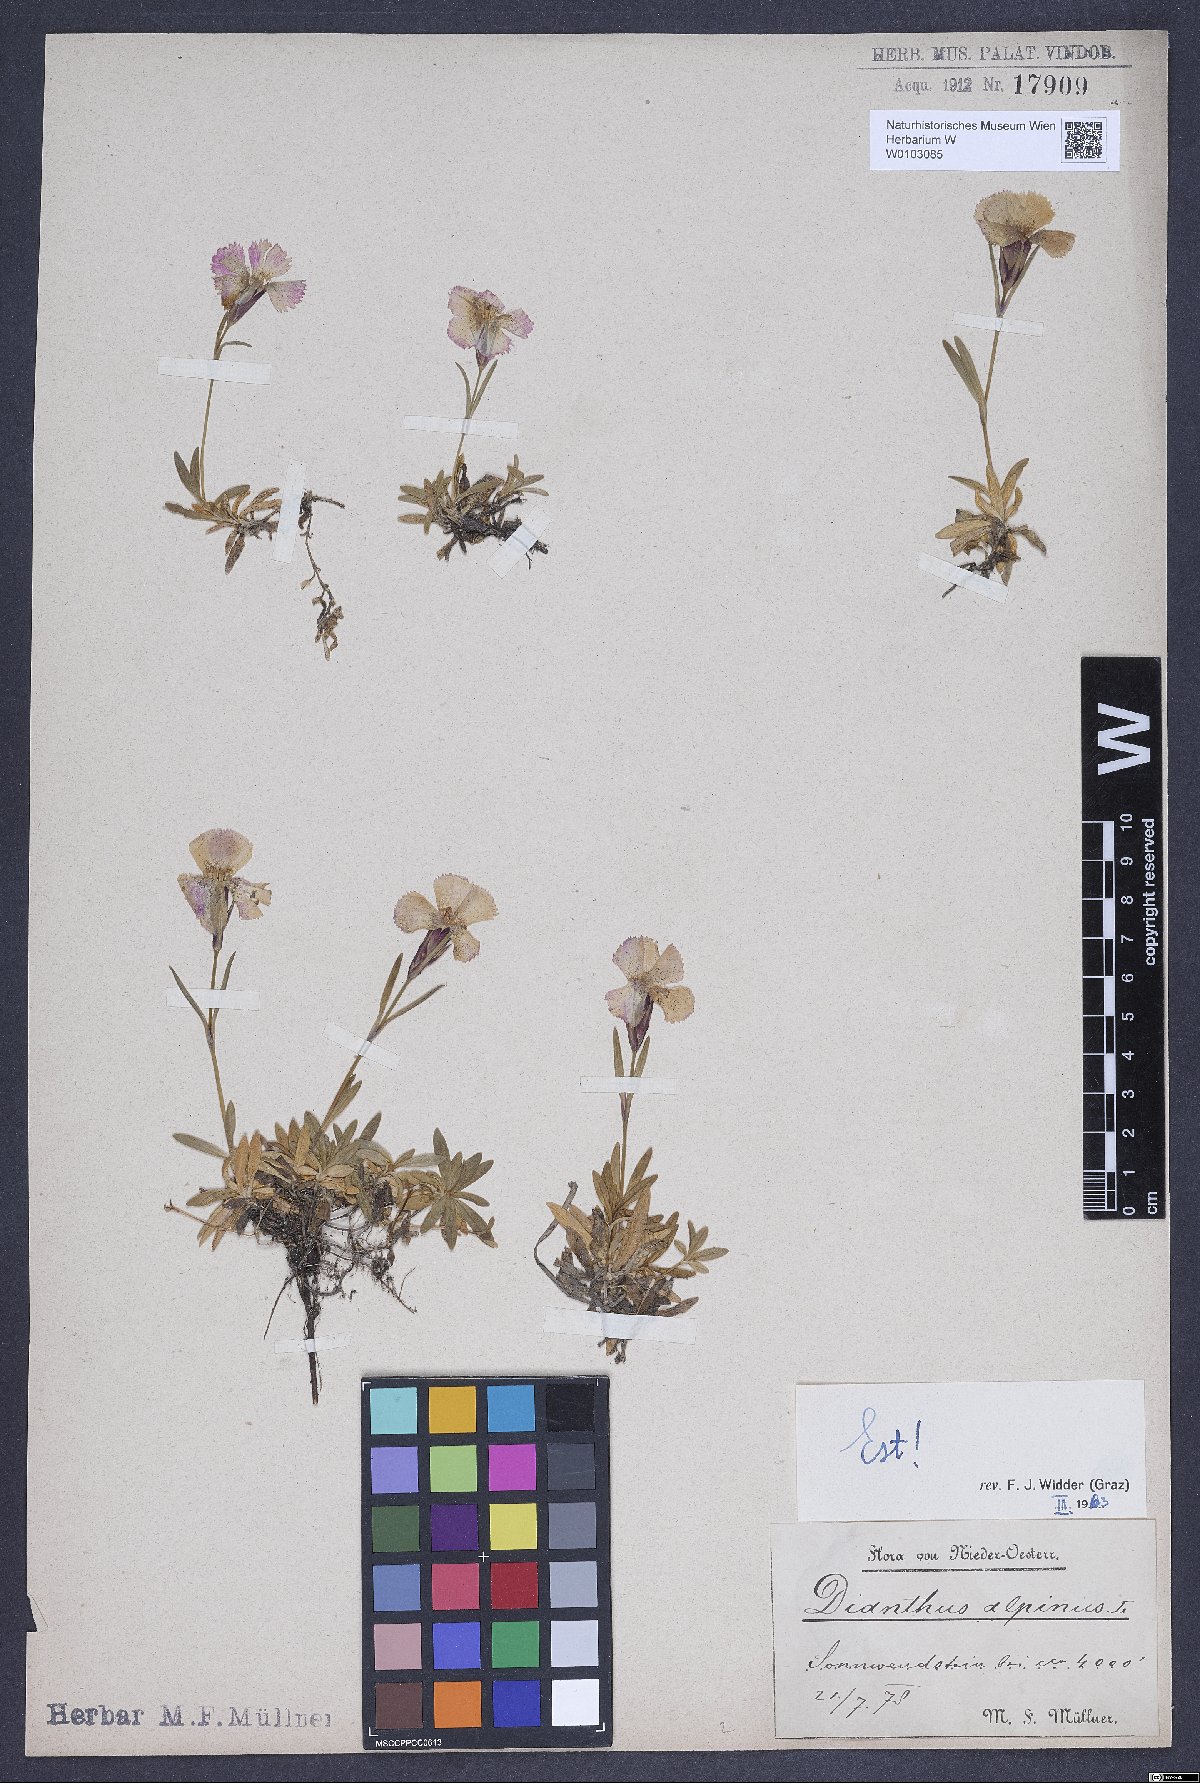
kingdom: Plantae
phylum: Tracheophyta
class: Magnoliopsida
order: Caryophyllales
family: Caryophyllaceae
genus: Dianthus
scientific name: Dianthus alpinus
